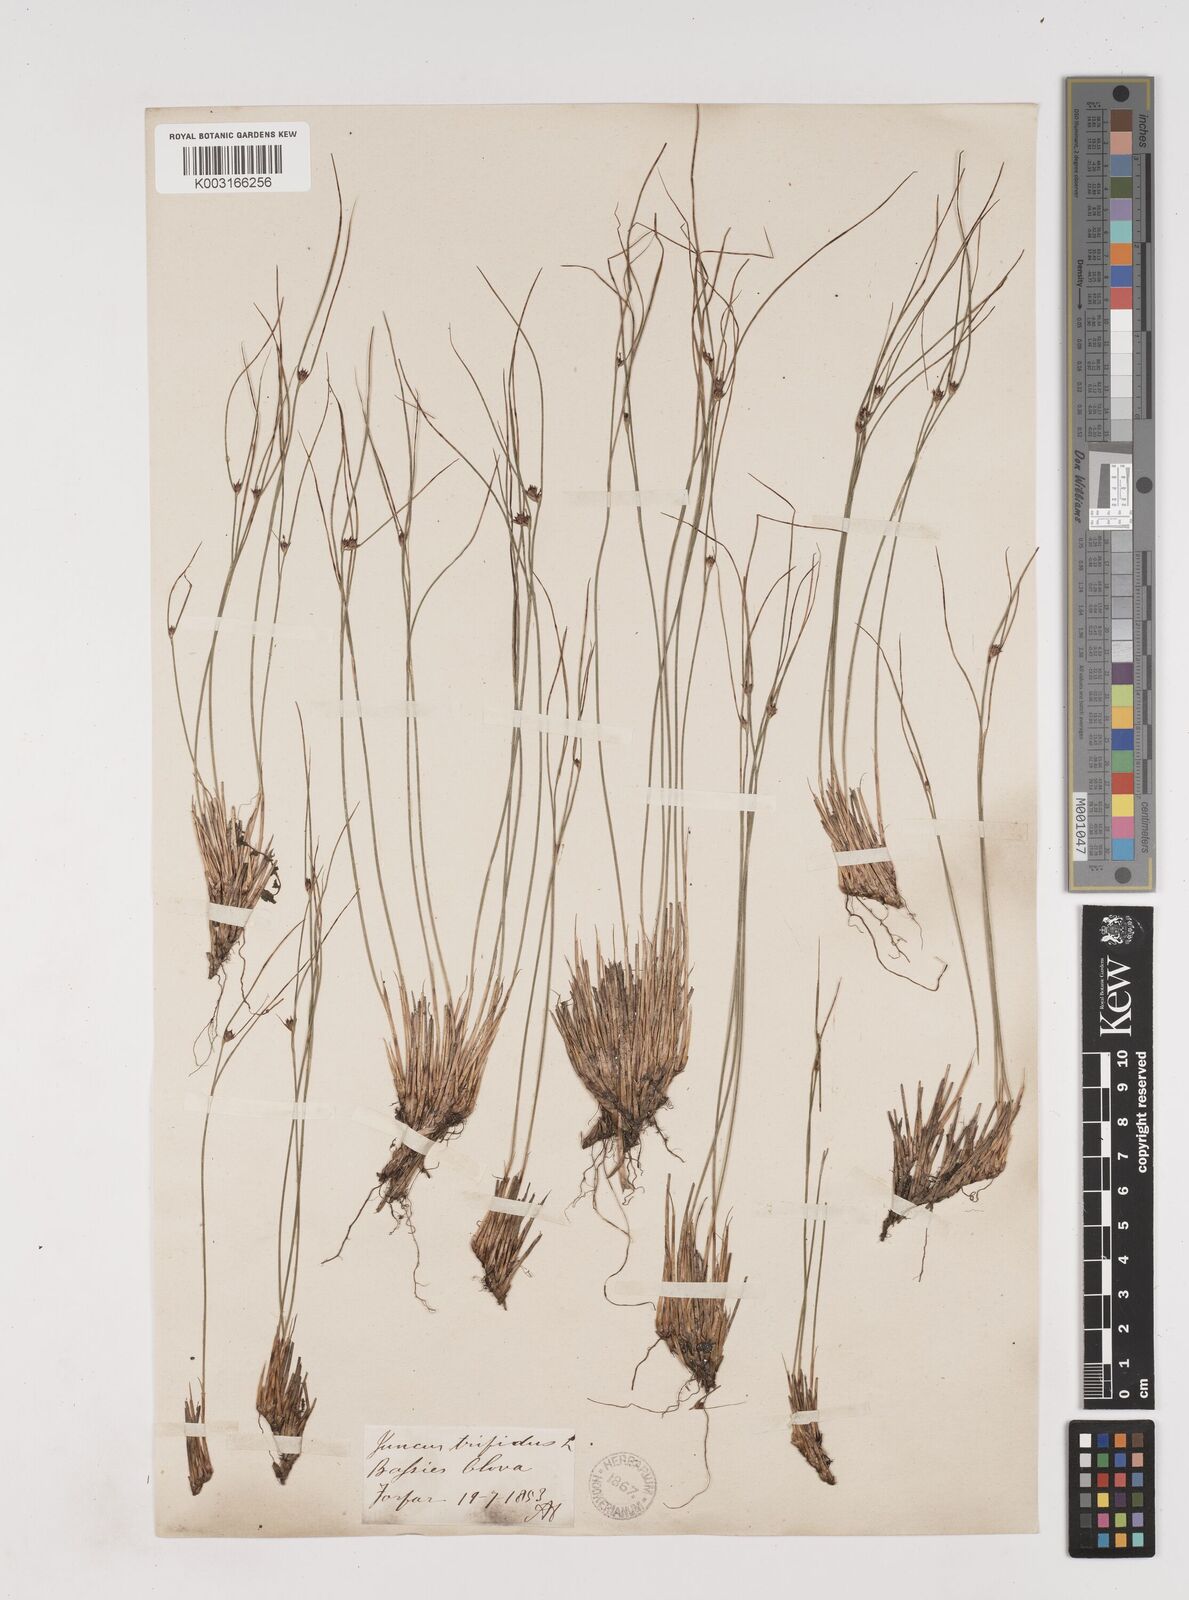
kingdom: Plantae
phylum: Tracheophyta
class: Liliopsida
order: Poales
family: Juncaceae
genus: Oreojuncus
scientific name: Oreojuncus trifidus
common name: Highland rush
